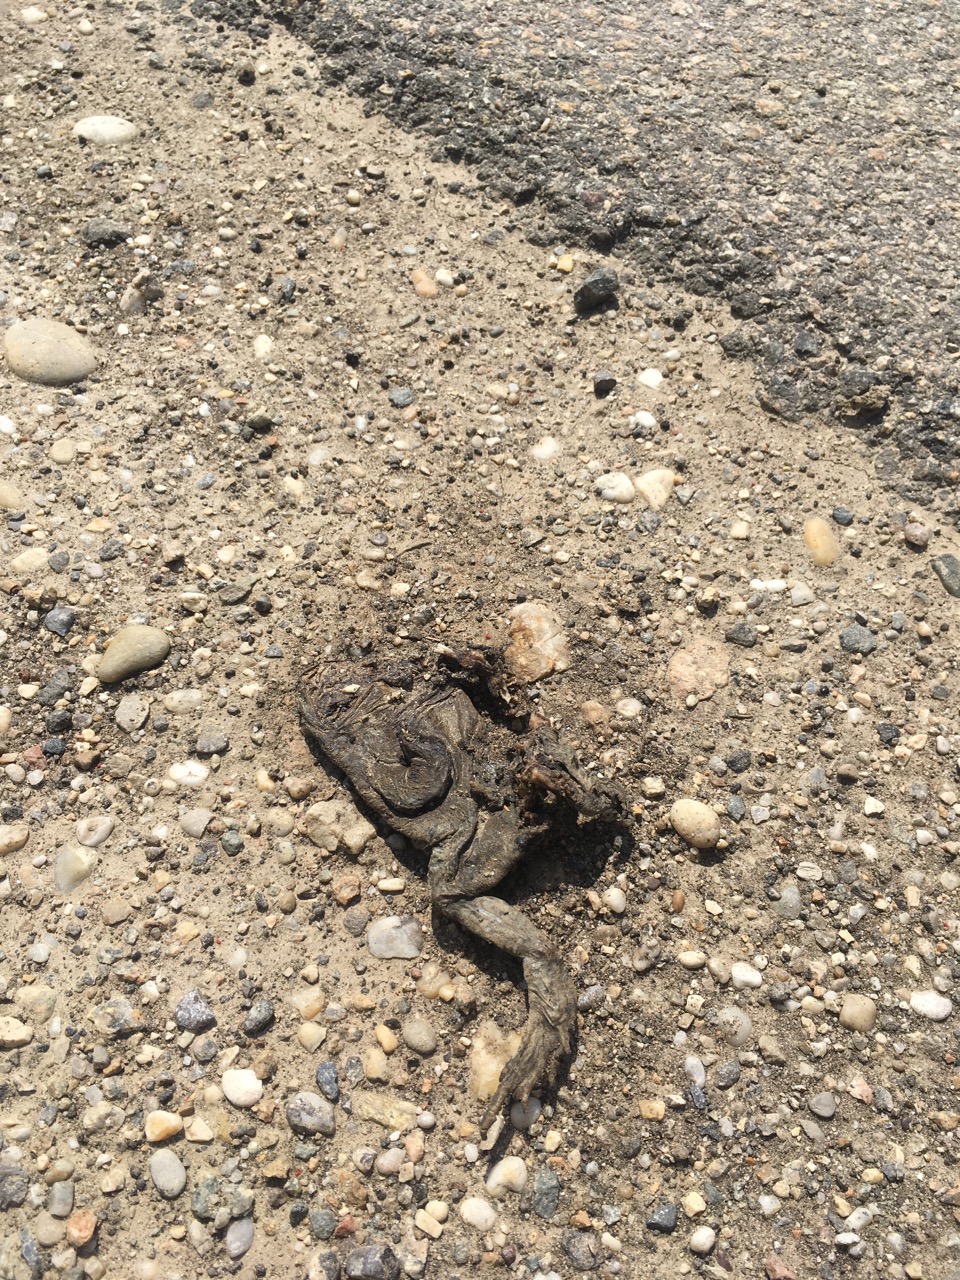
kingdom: Animalia
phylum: Chordata
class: Amphibia
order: Anura
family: Bufonidae
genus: Bufo
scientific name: Bufo bufo
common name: Common toad
